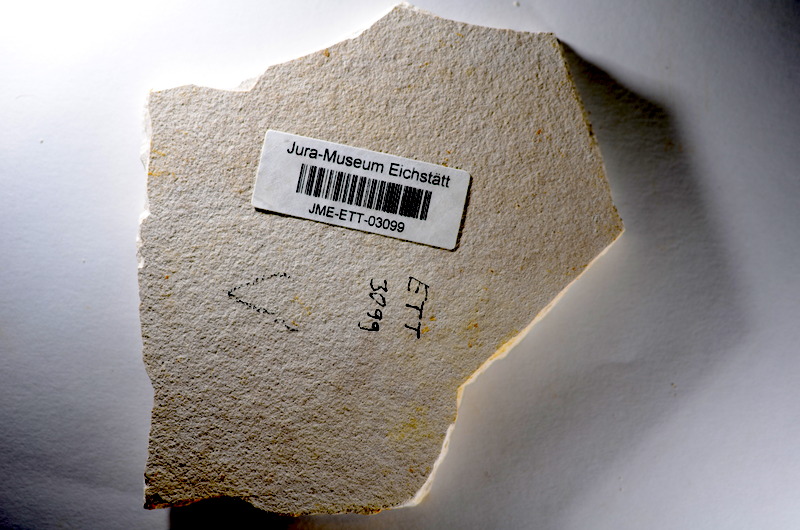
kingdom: Animalia
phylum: Chordata
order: Salmoniformes
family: Orthogonikleithridae
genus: Orthogonikleithrus
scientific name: Orthogonikleithrus hoelli
